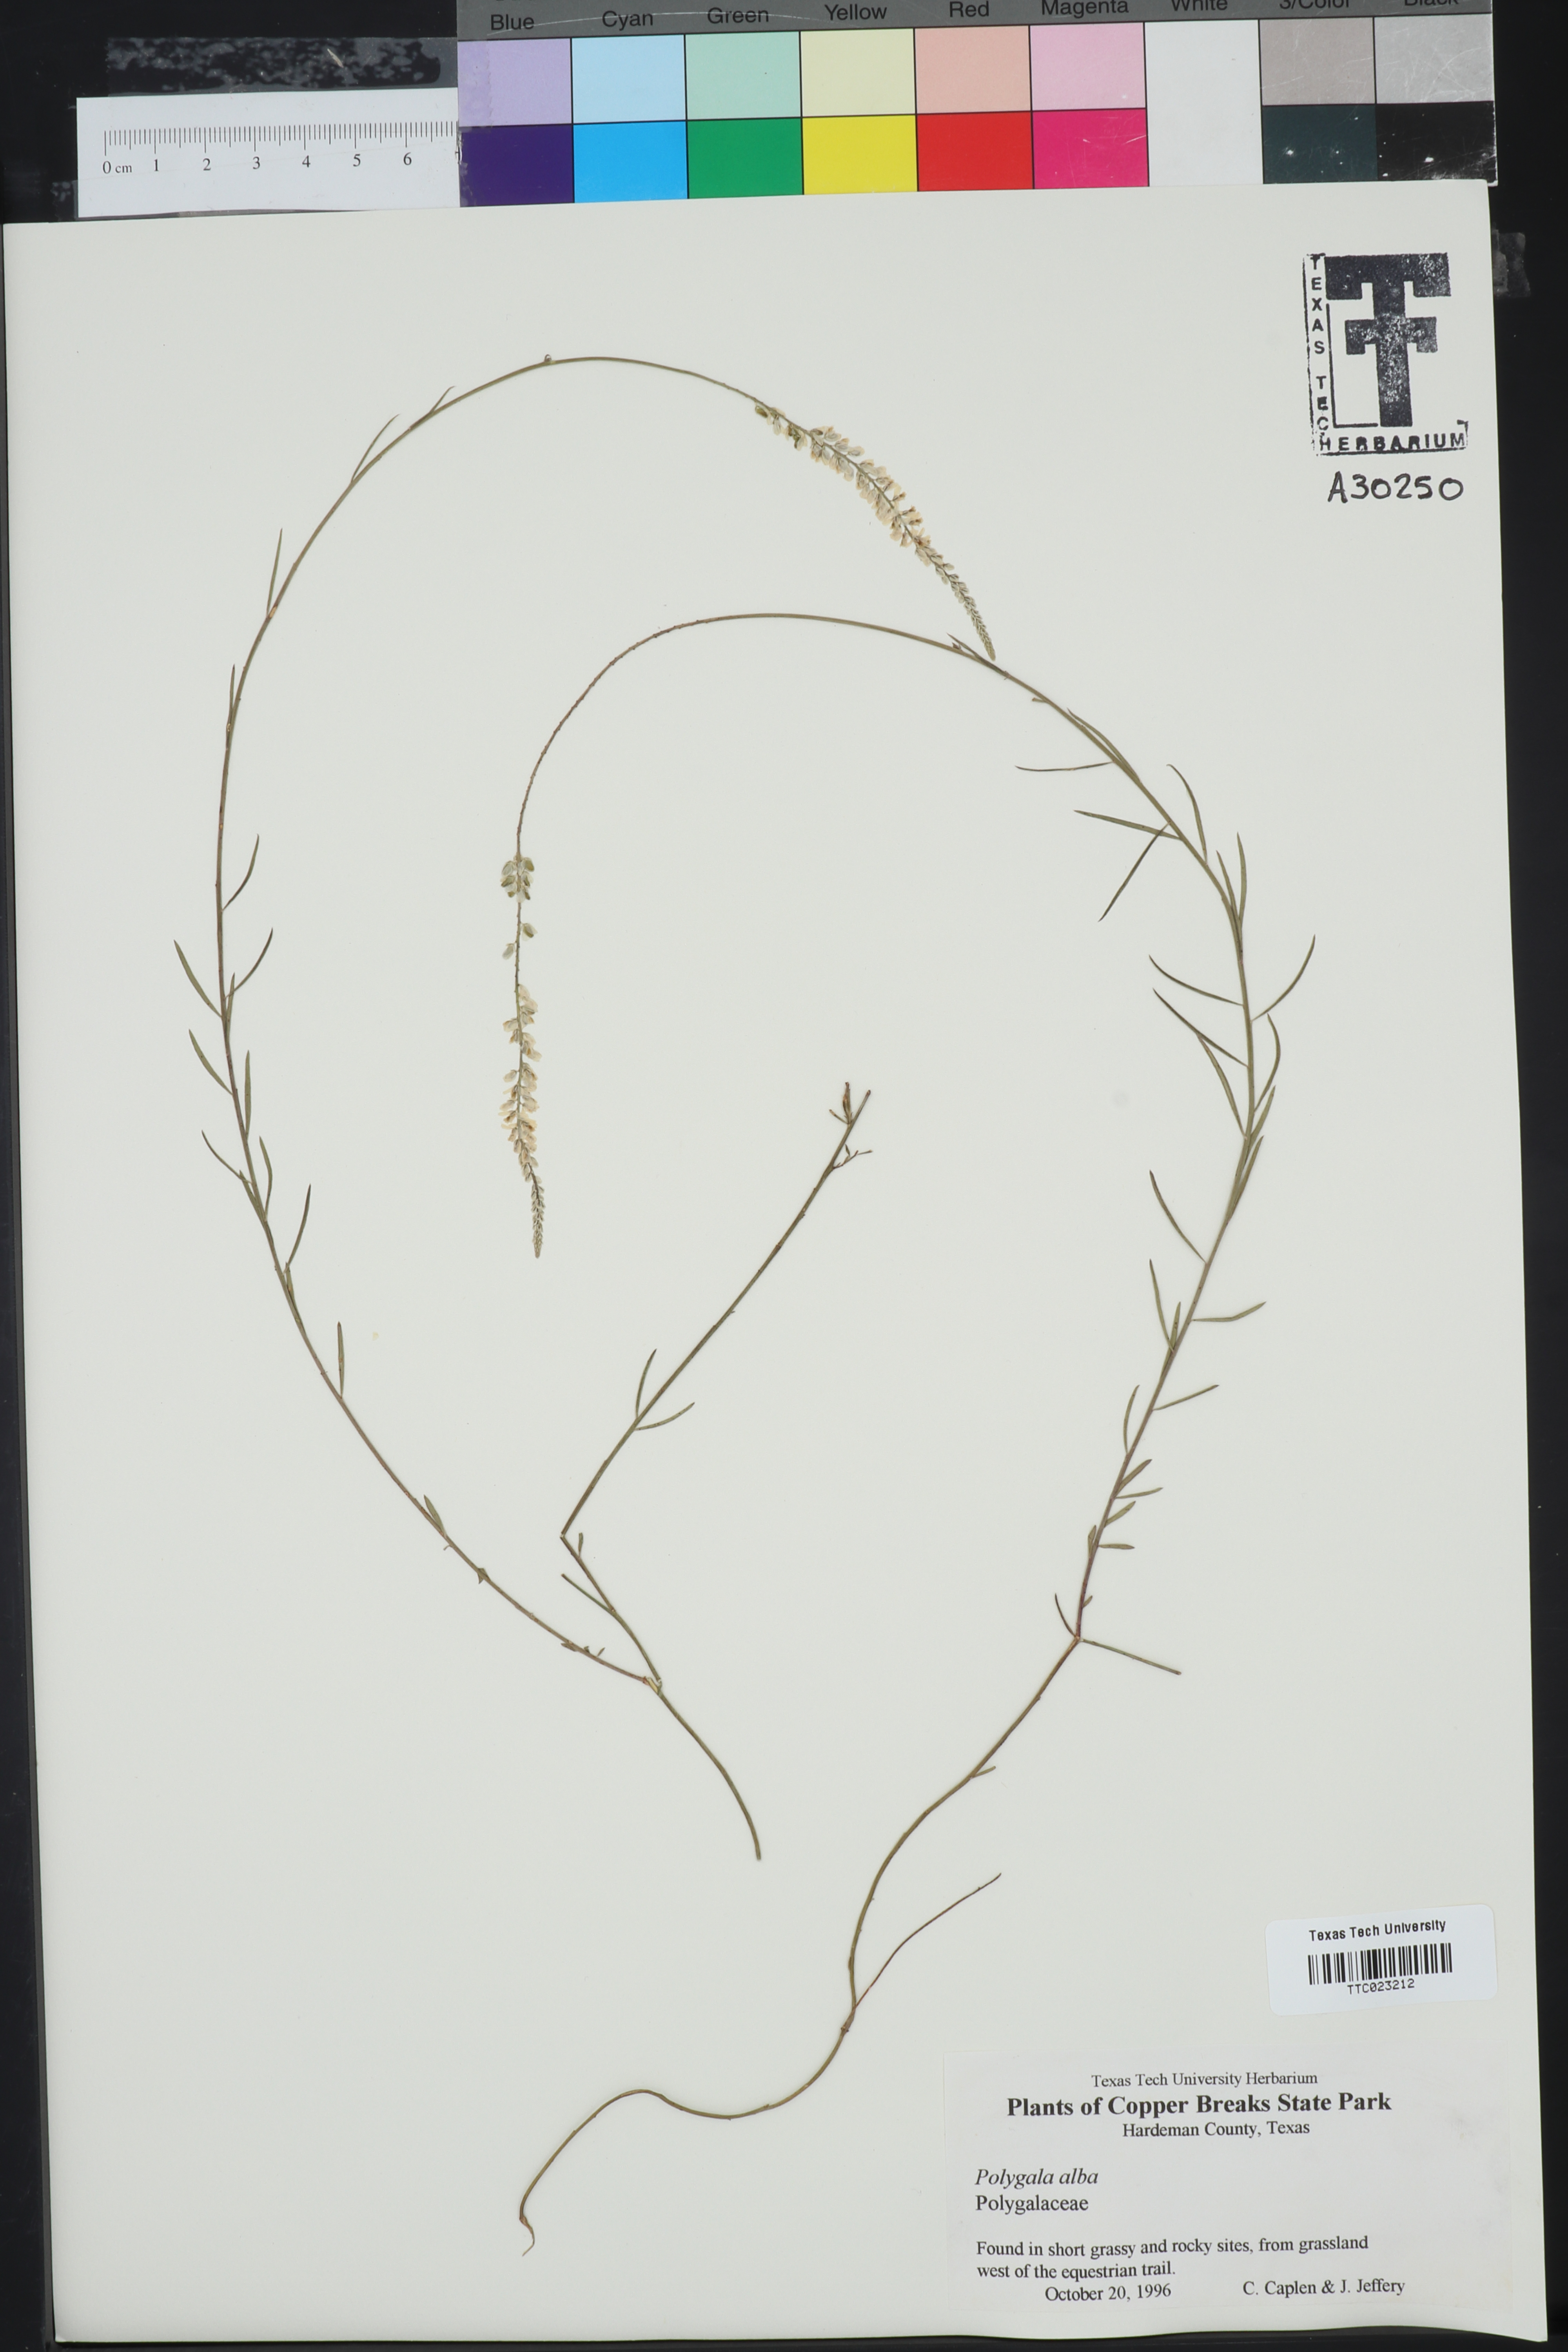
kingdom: Plantae
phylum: Tracheophyta
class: Magnoliopsida
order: Fabales
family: Polygalaceae
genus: Polygala
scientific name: Polygala alba
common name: White milkwort
